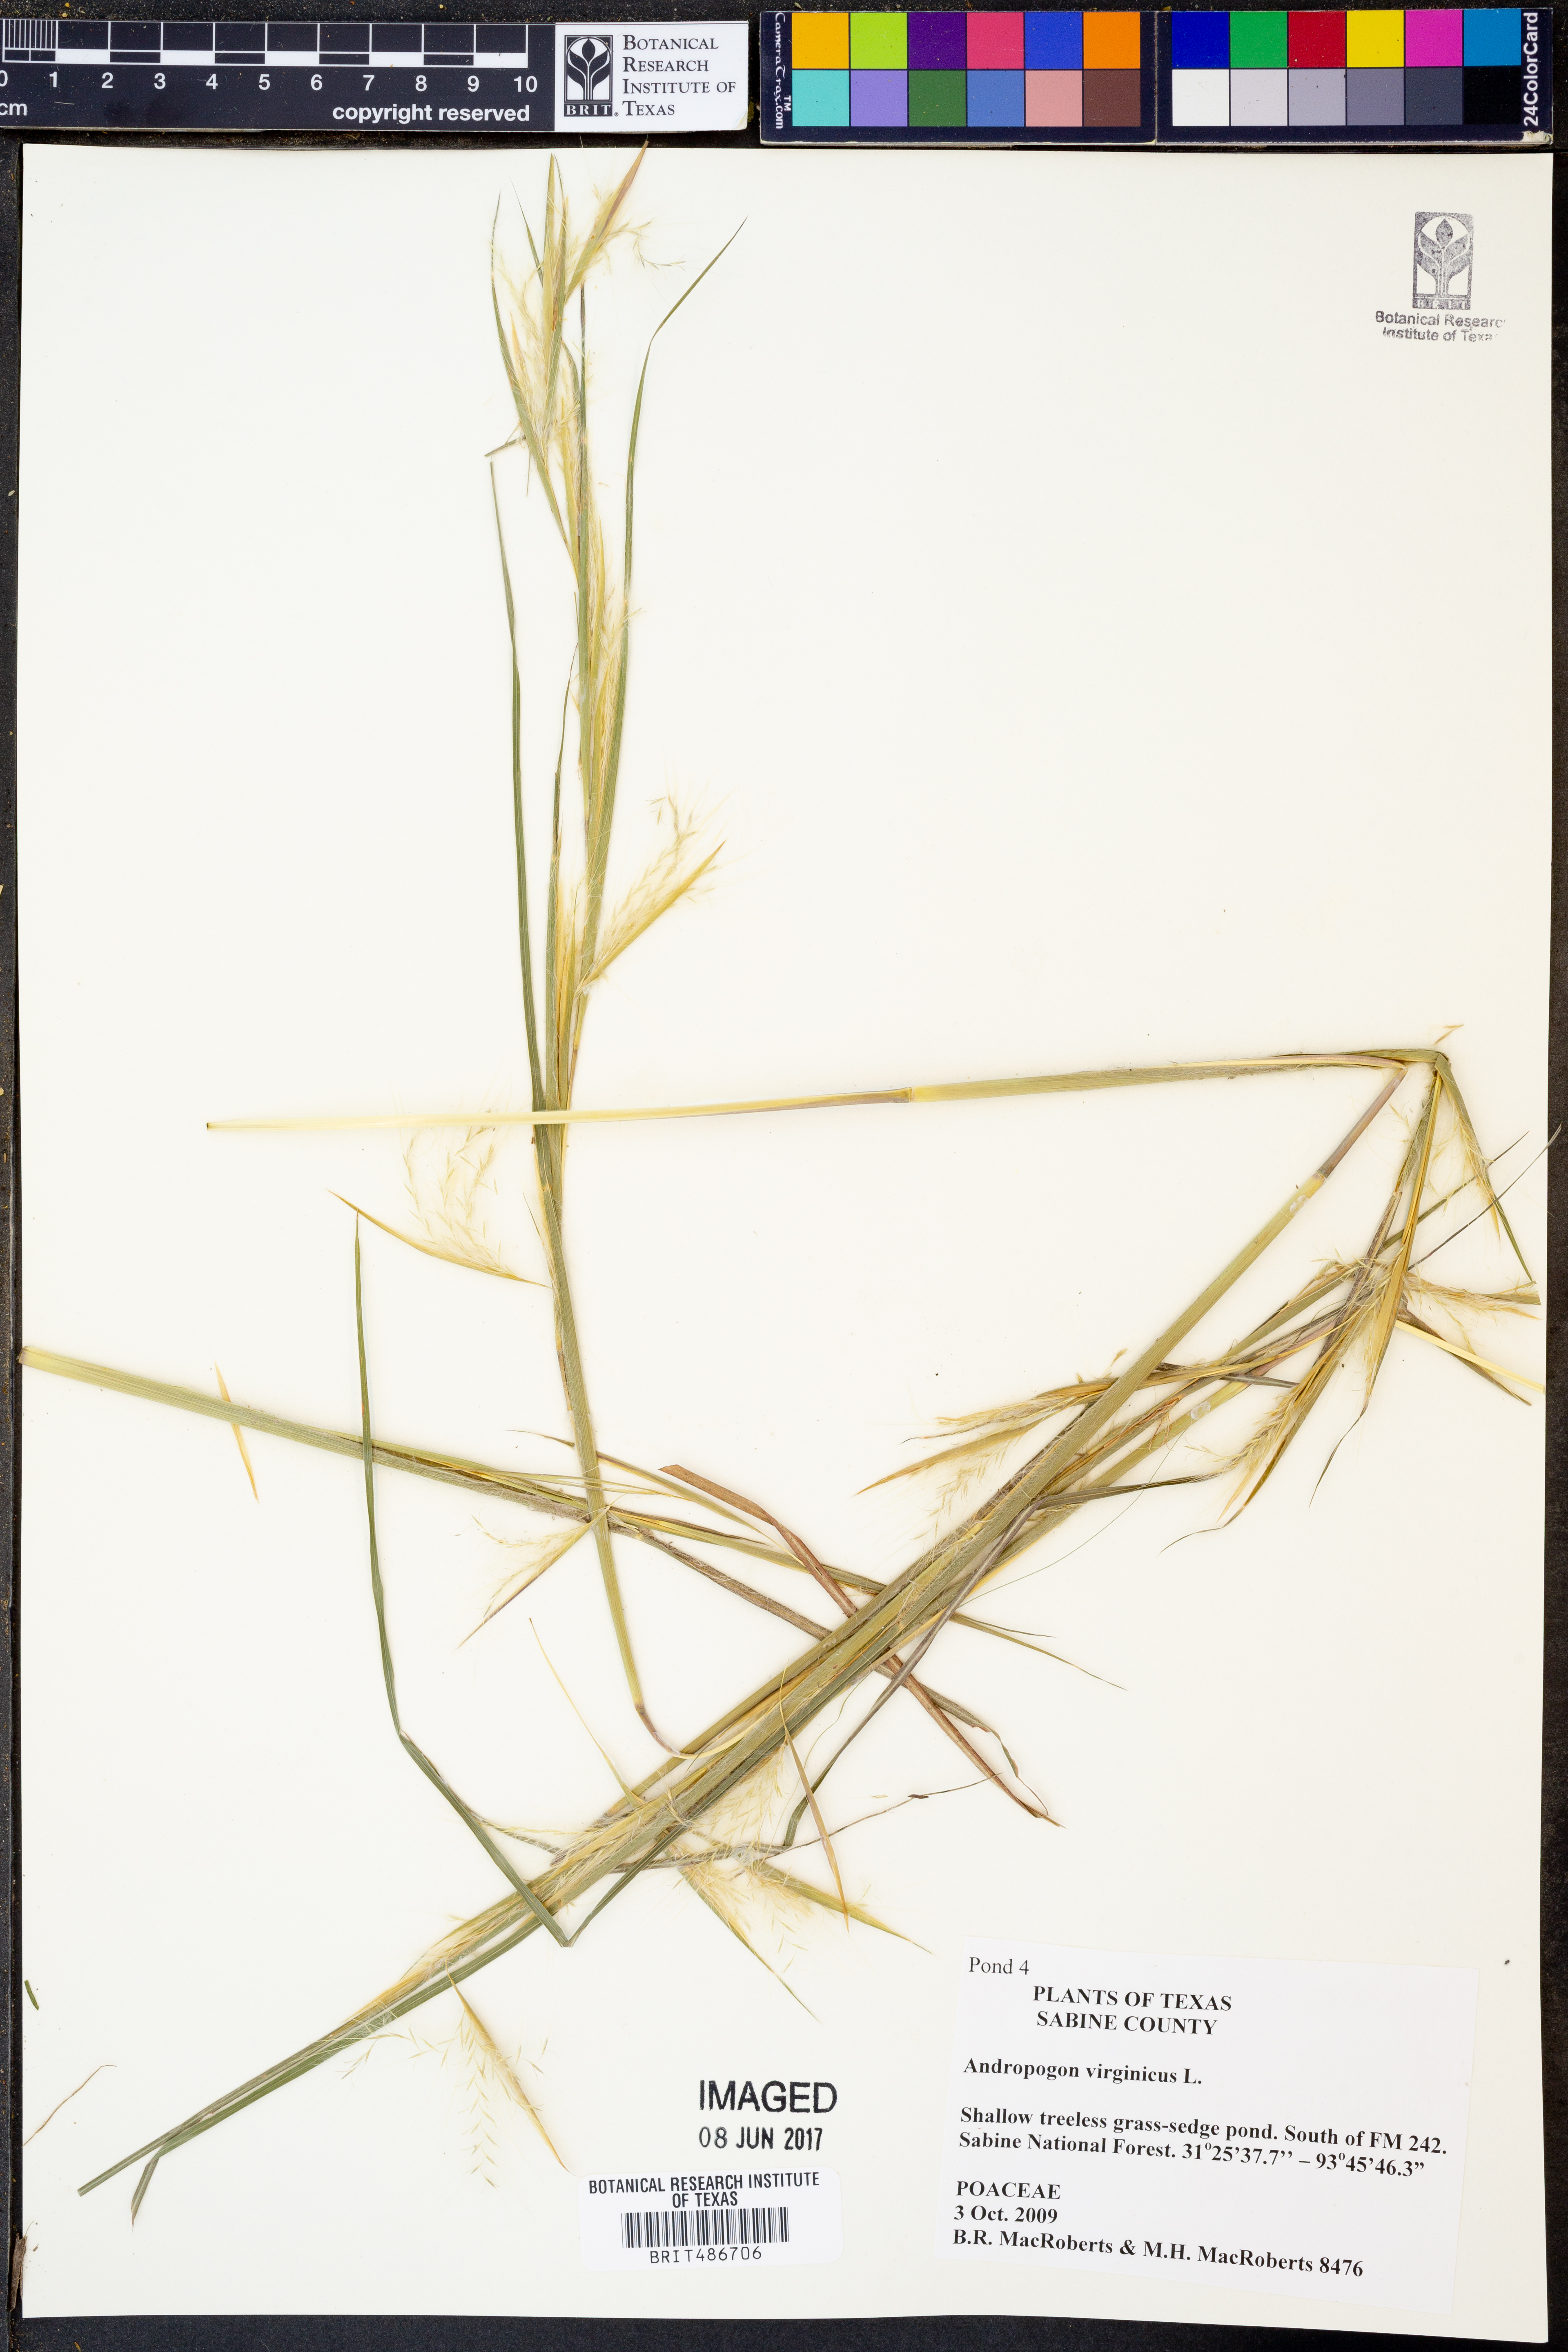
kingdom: Plantae
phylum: Tracheophyta
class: Liliopsida
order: Poales
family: Poaceae
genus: Andropogon
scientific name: Andropogon virginicus
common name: Broomsedge bluestem
